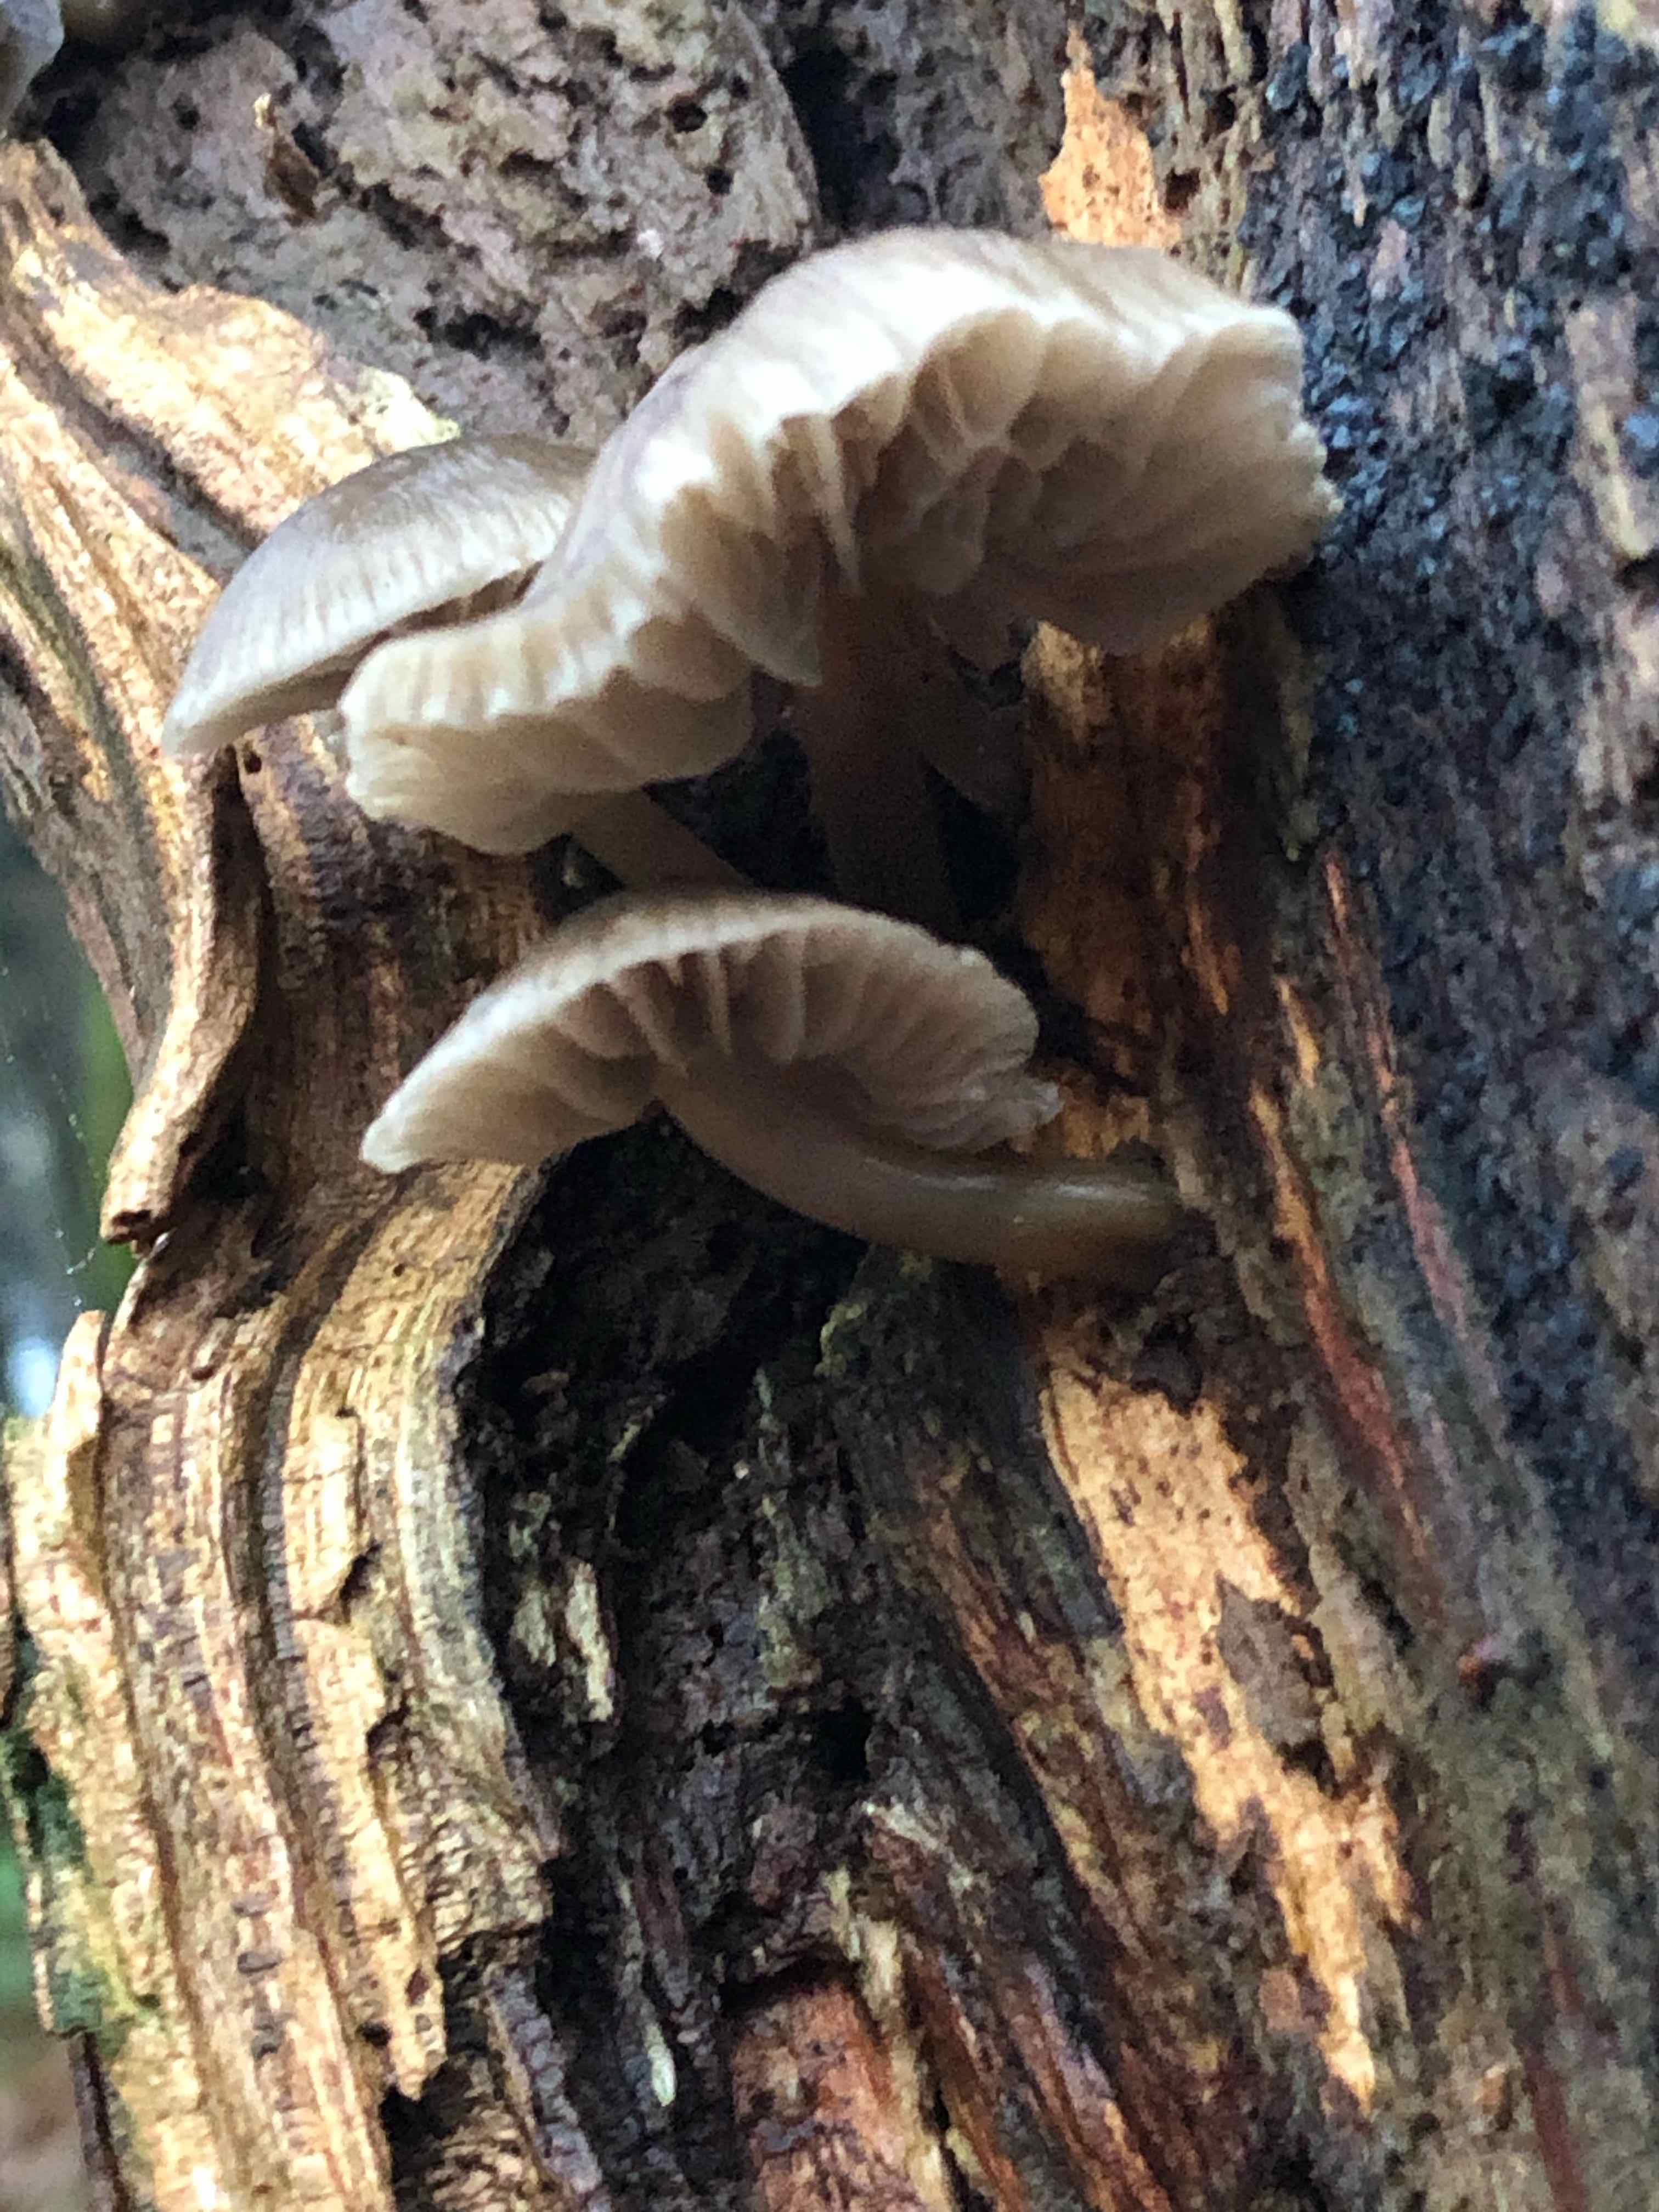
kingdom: Fungi
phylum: Basidiomycota
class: Agaricomycetes
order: Agaricales
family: Mycenaceae
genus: Mycena
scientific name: Mycena galericulata
